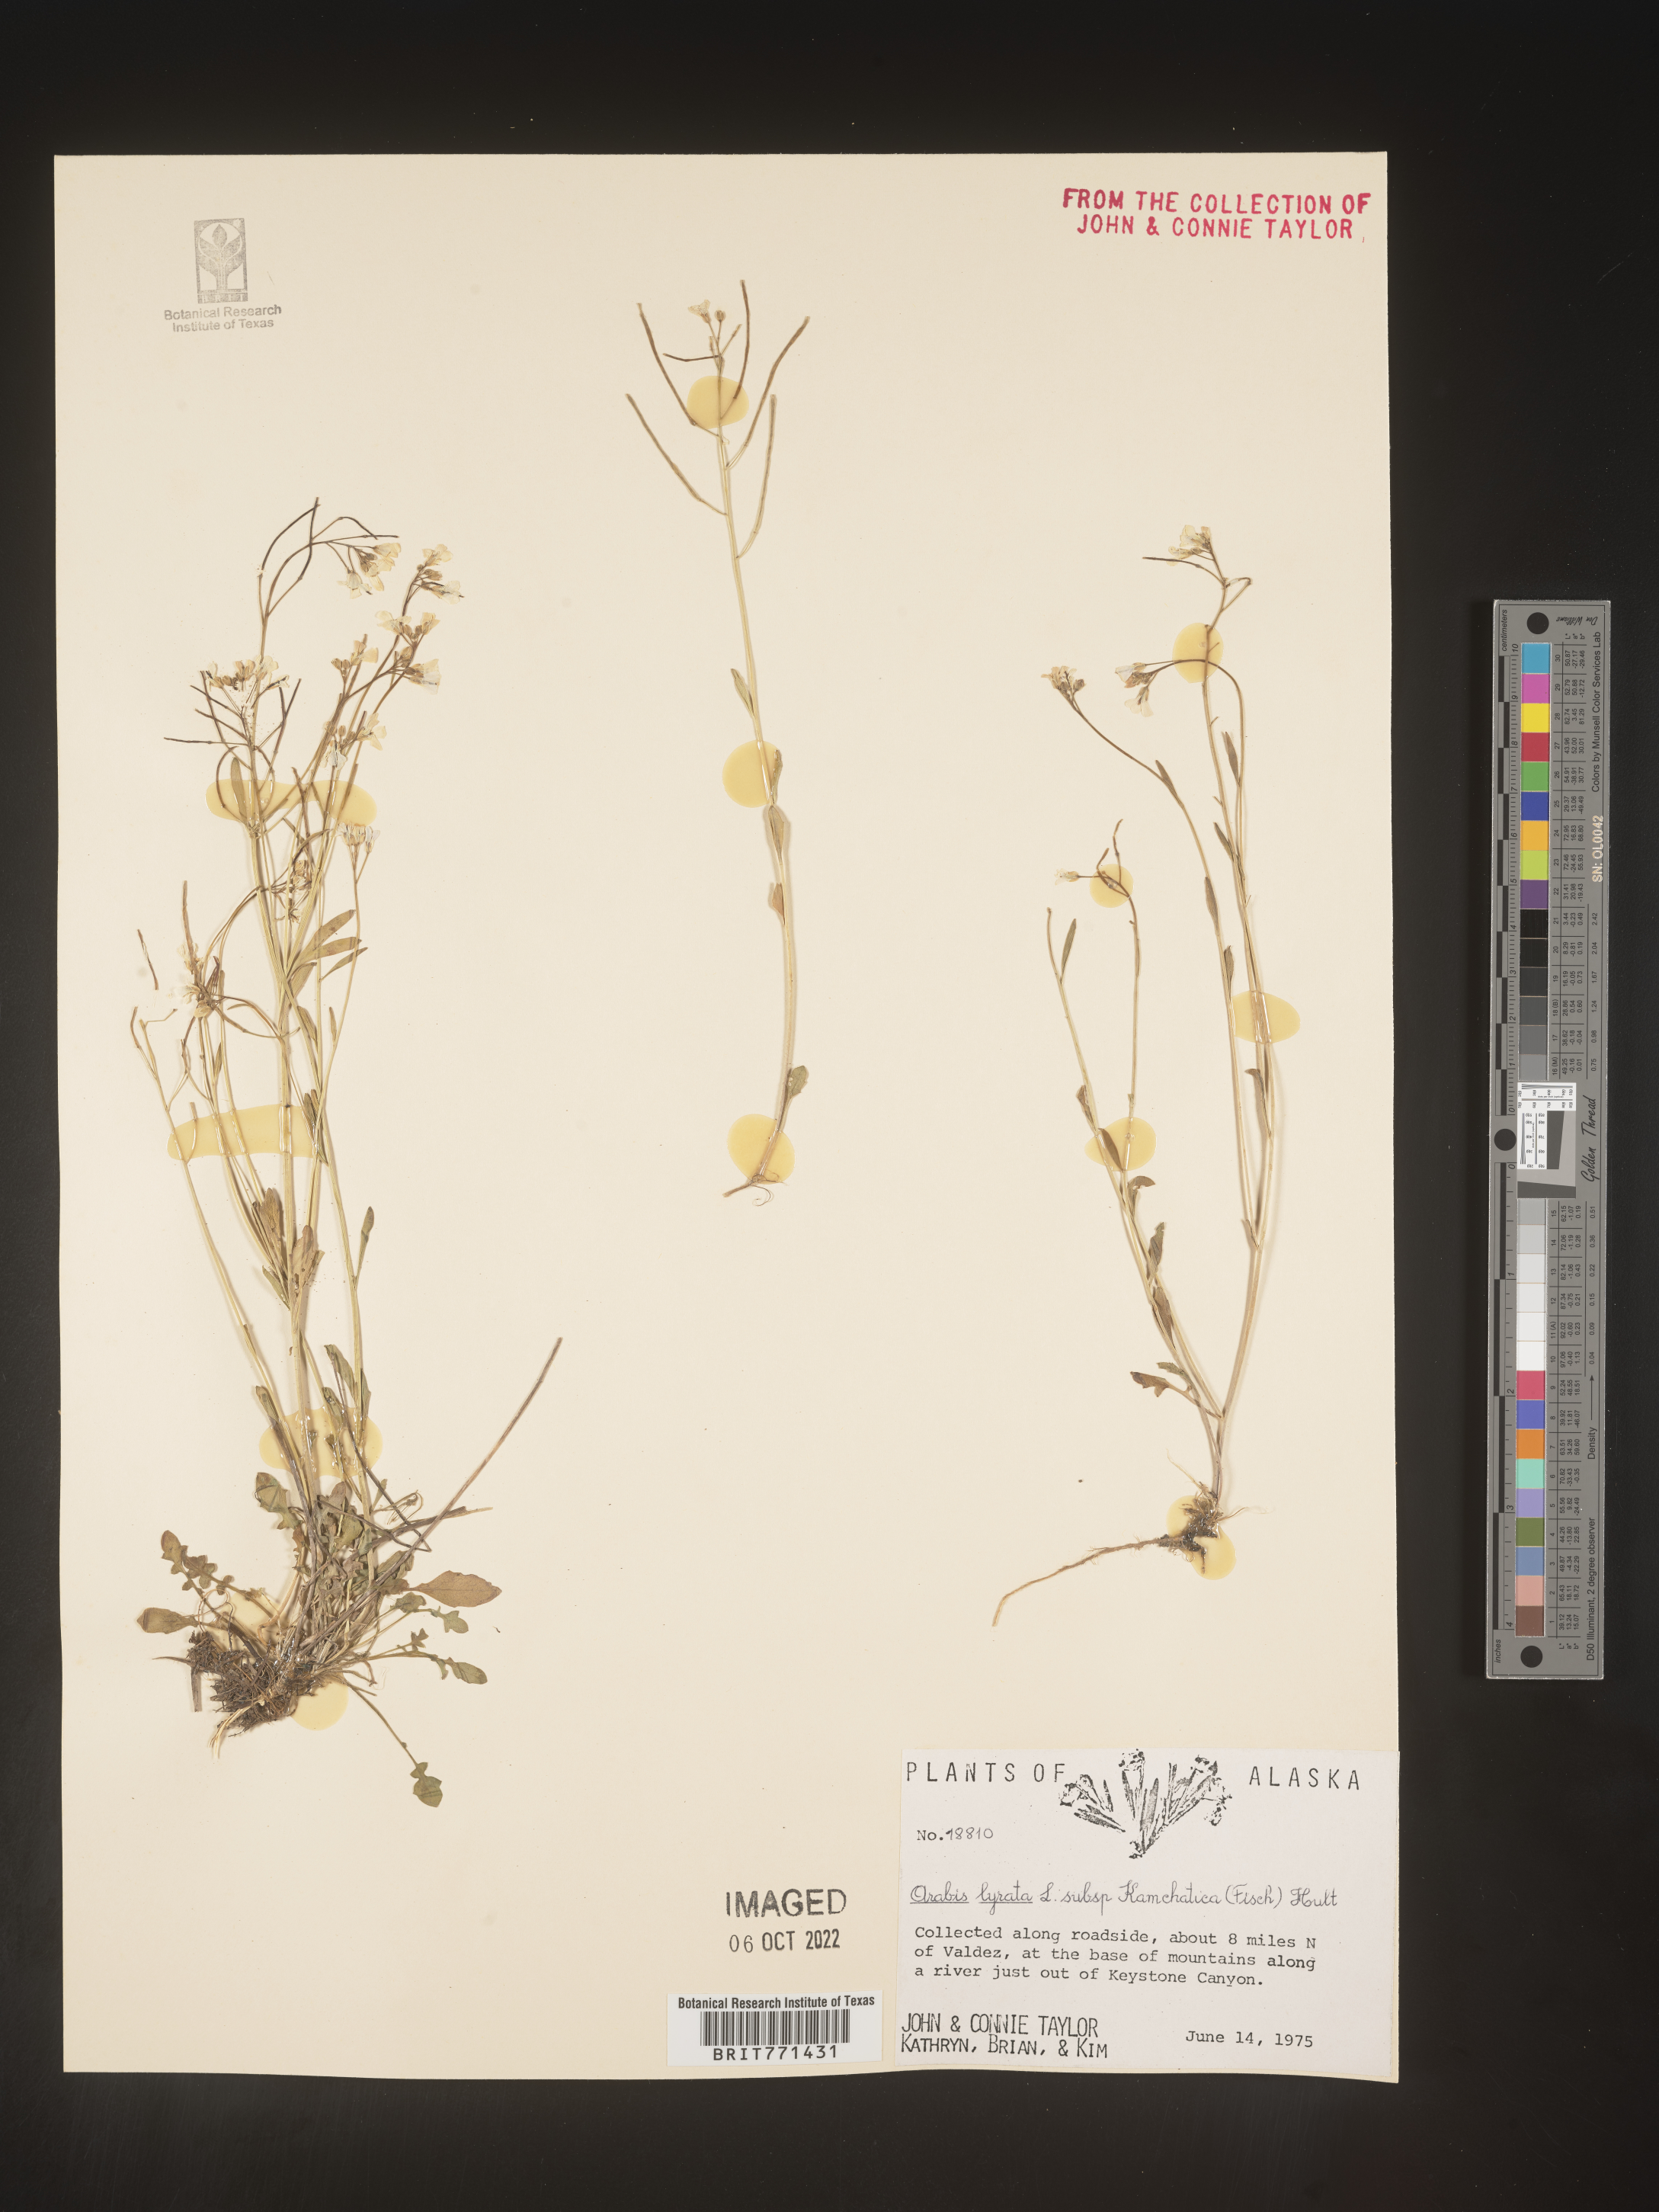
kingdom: Plantae
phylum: Tracheophyta
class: Magnoliopsida
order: Brassicales
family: Brassicaceae
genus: Arabidopsis
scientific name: Arabidopsis lyrata
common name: Lyrate rockcress
